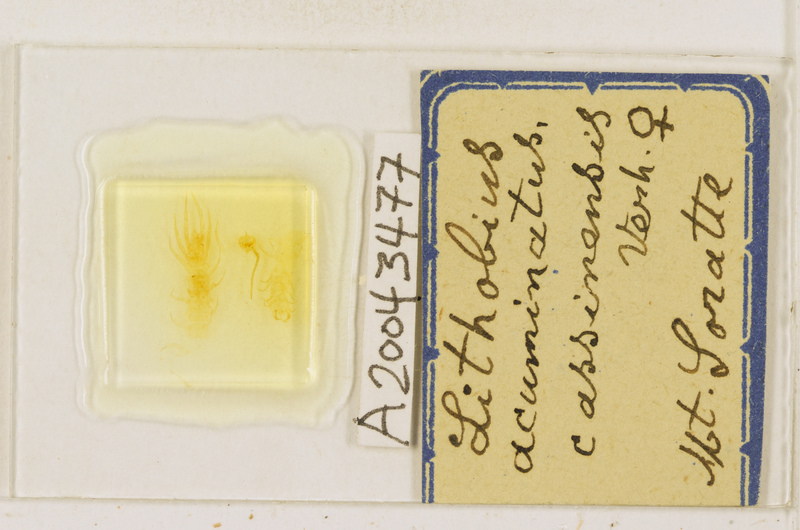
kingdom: Animalia
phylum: Arthropoda
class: Chilopoda
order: Lithobiomorpha
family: Lithobiidae
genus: Lithobius
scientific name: Lithobius acuminatus
